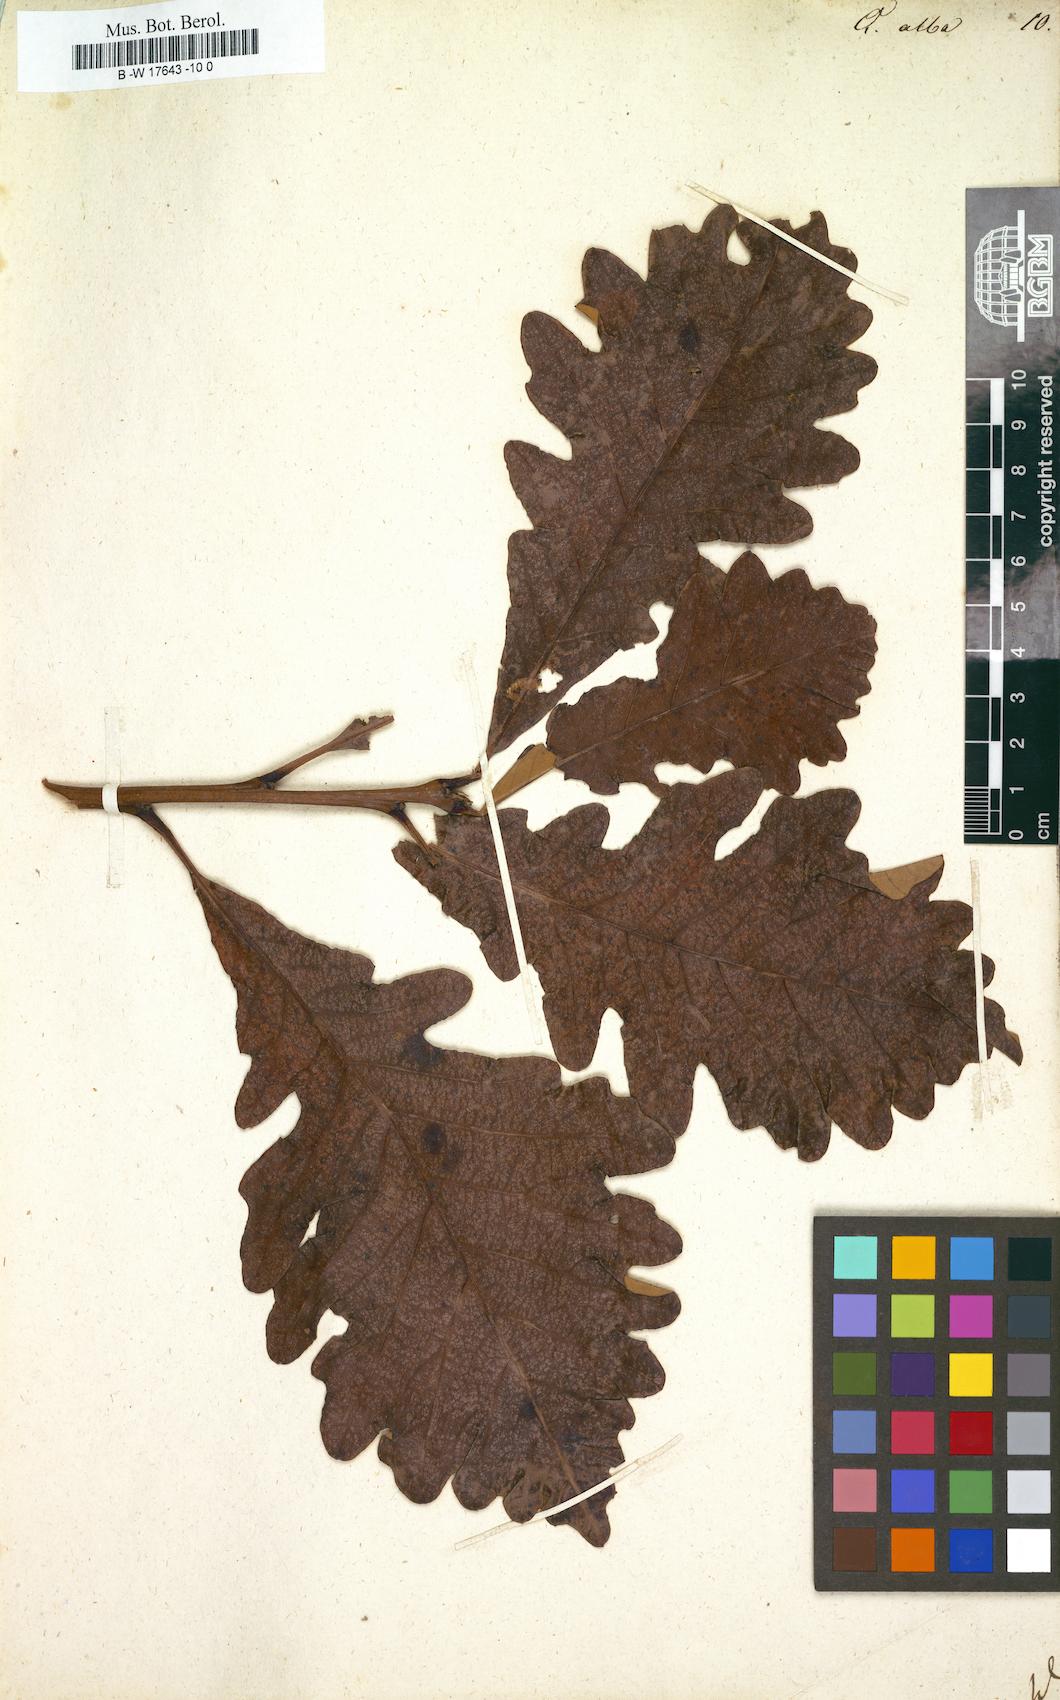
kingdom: Plantae
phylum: Tracheophyta
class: Magnoliopsida
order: Fagales
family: Fagaceae
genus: Quercus
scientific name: Quercus alba
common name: White oak
